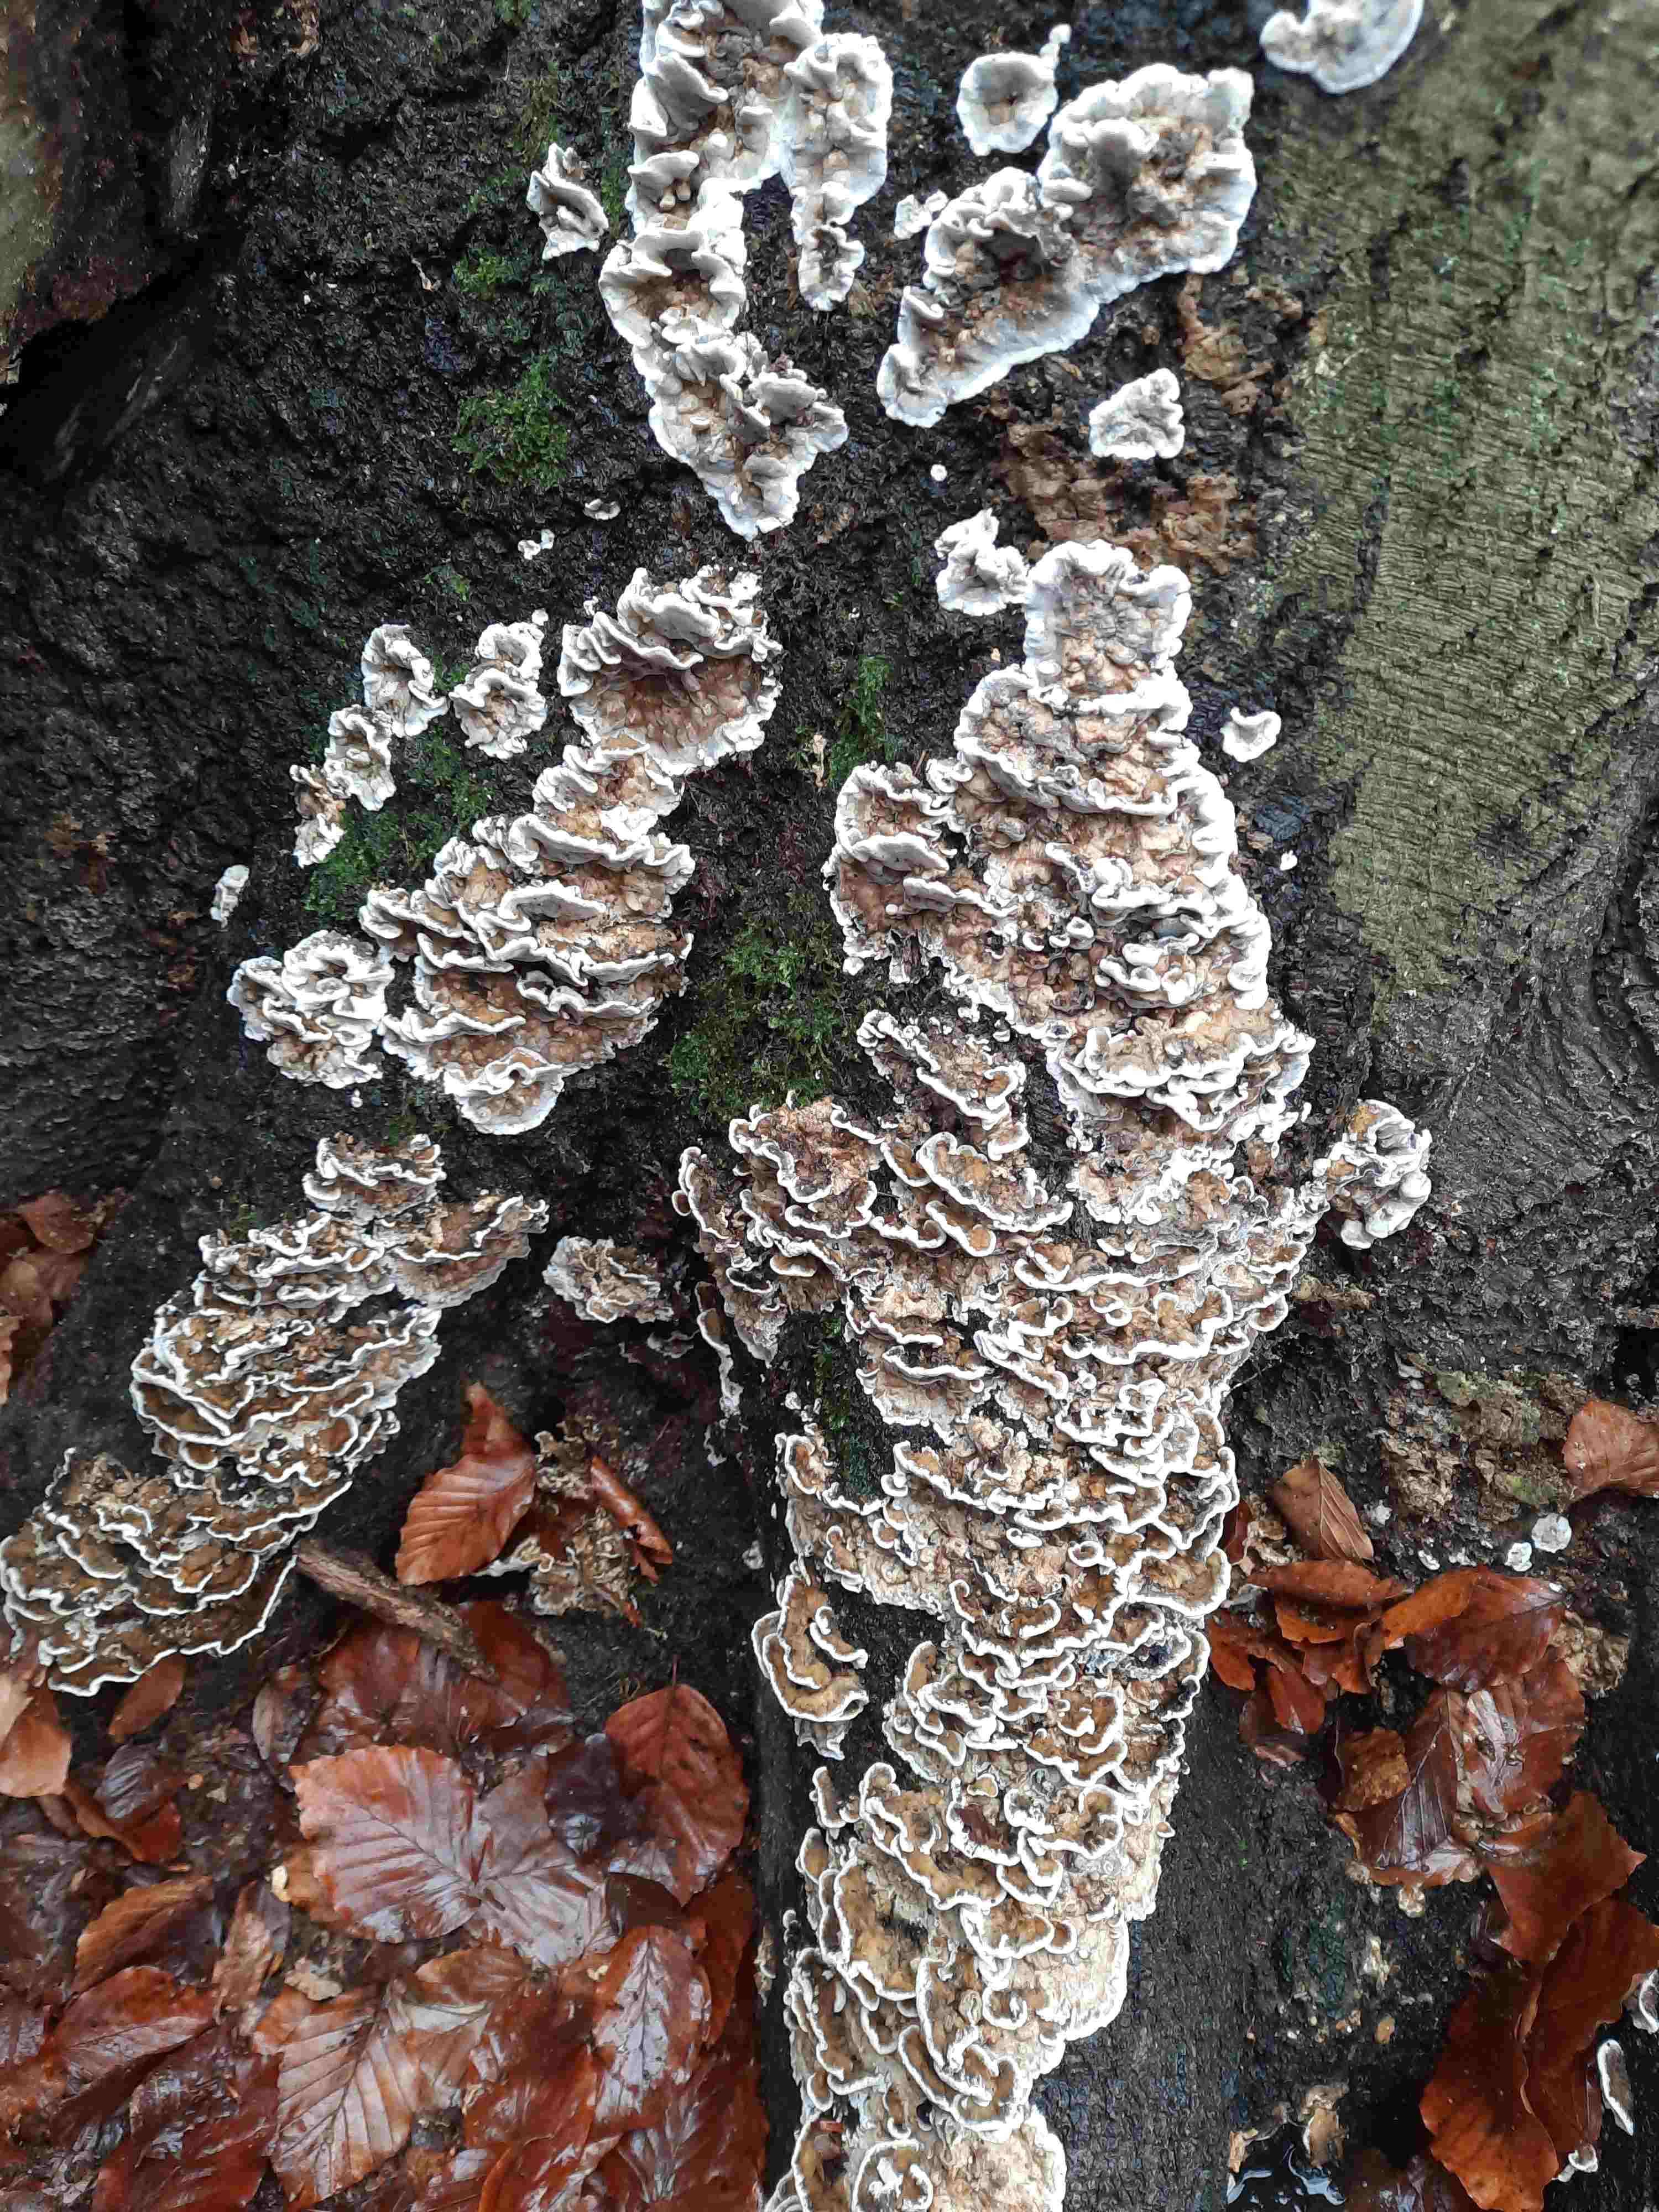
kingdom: Fungi
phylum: Basidiomycota
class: Agaricomycetes
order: Polyporales
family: Phanerochaetaceae
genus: Bjerkandera
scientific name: Bjerkandera adusta
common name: sveden sodporesvamp
